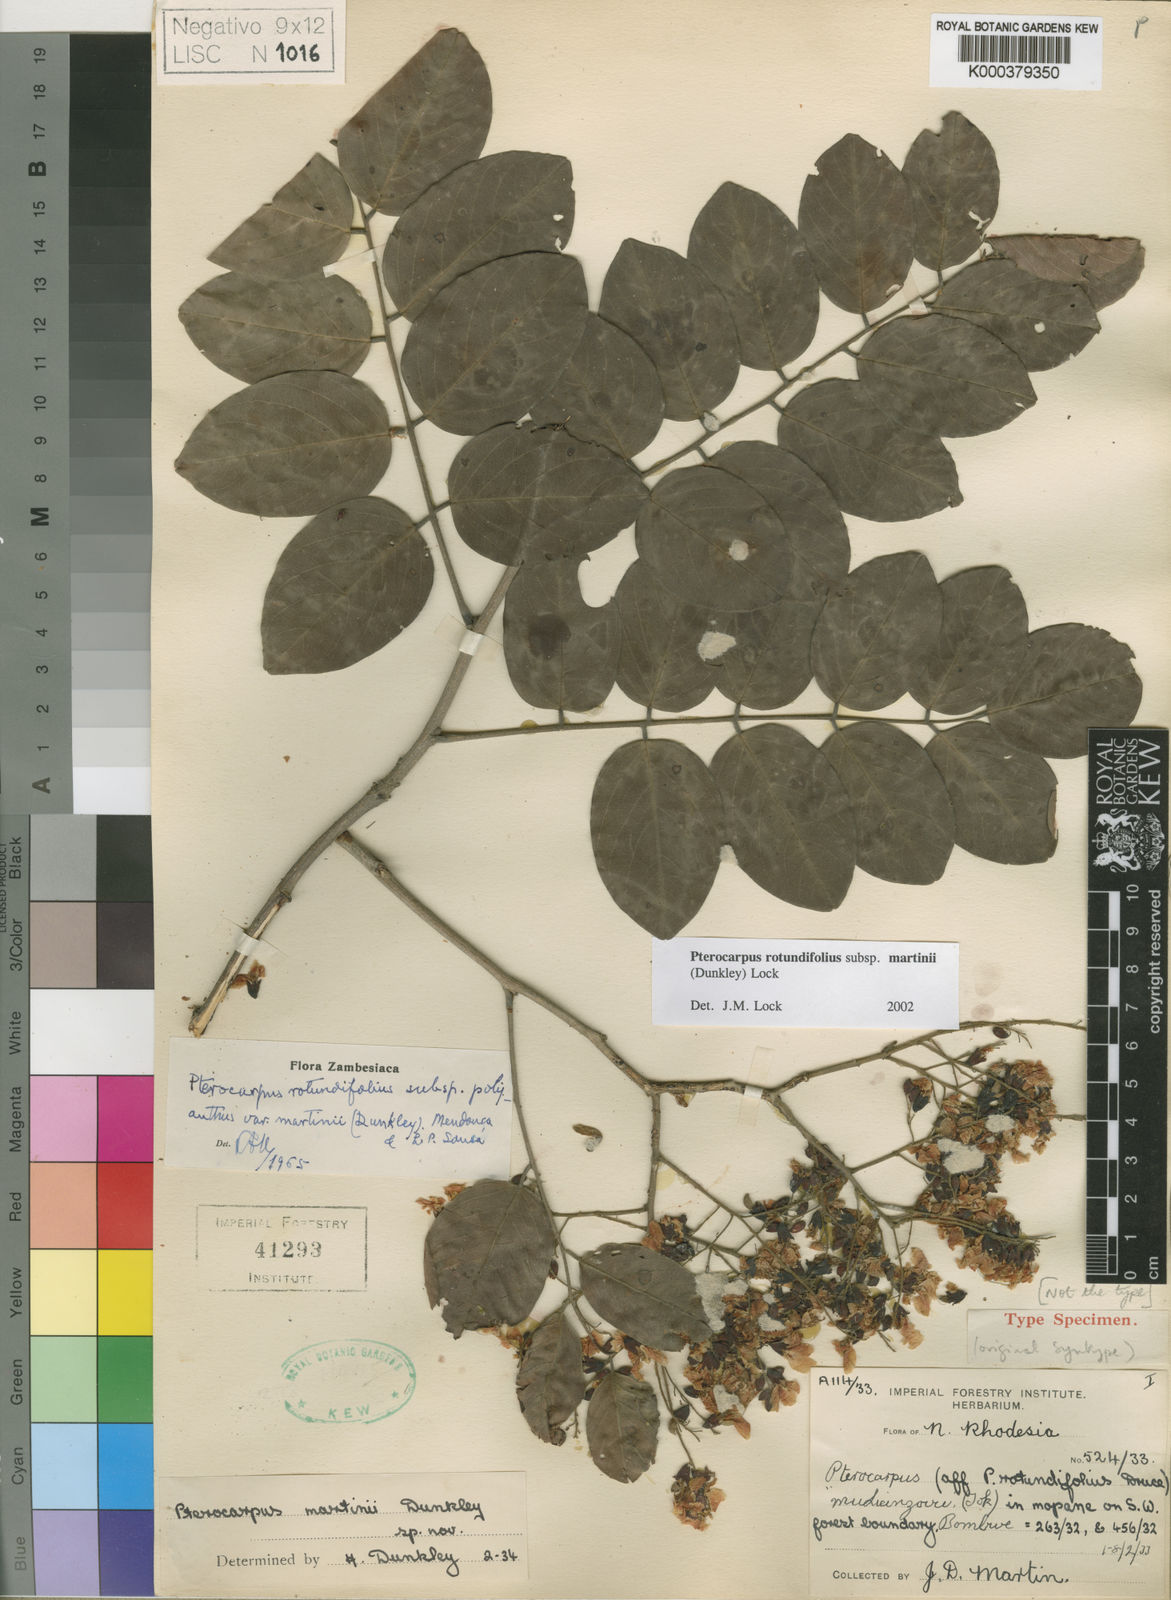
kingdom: Plantae
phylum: Tracheophyta
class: Magnoliopsida
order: Fabales
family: Fabaceae
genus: Pterocarpus
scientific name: Pterocarpus rotundifolius
